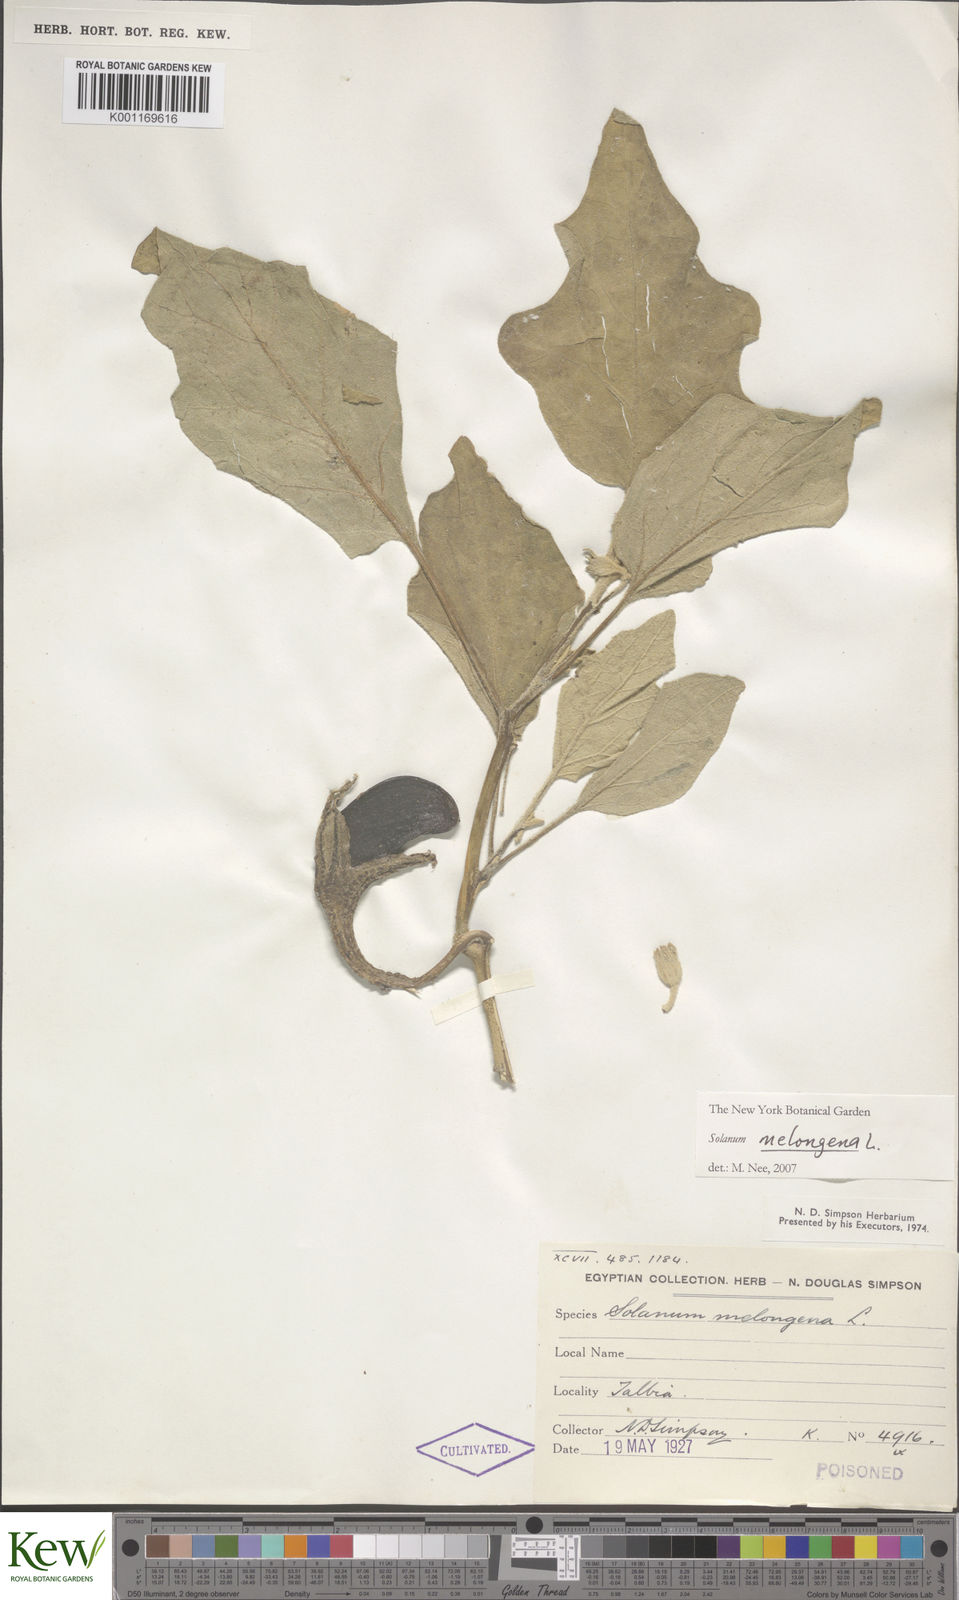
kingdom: Plantae
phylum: Tracheophyta
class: Magnoliopsida
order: Solanales
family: Solanaceae
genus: Solanum
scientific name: Solanum melongena
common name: Eggplant
